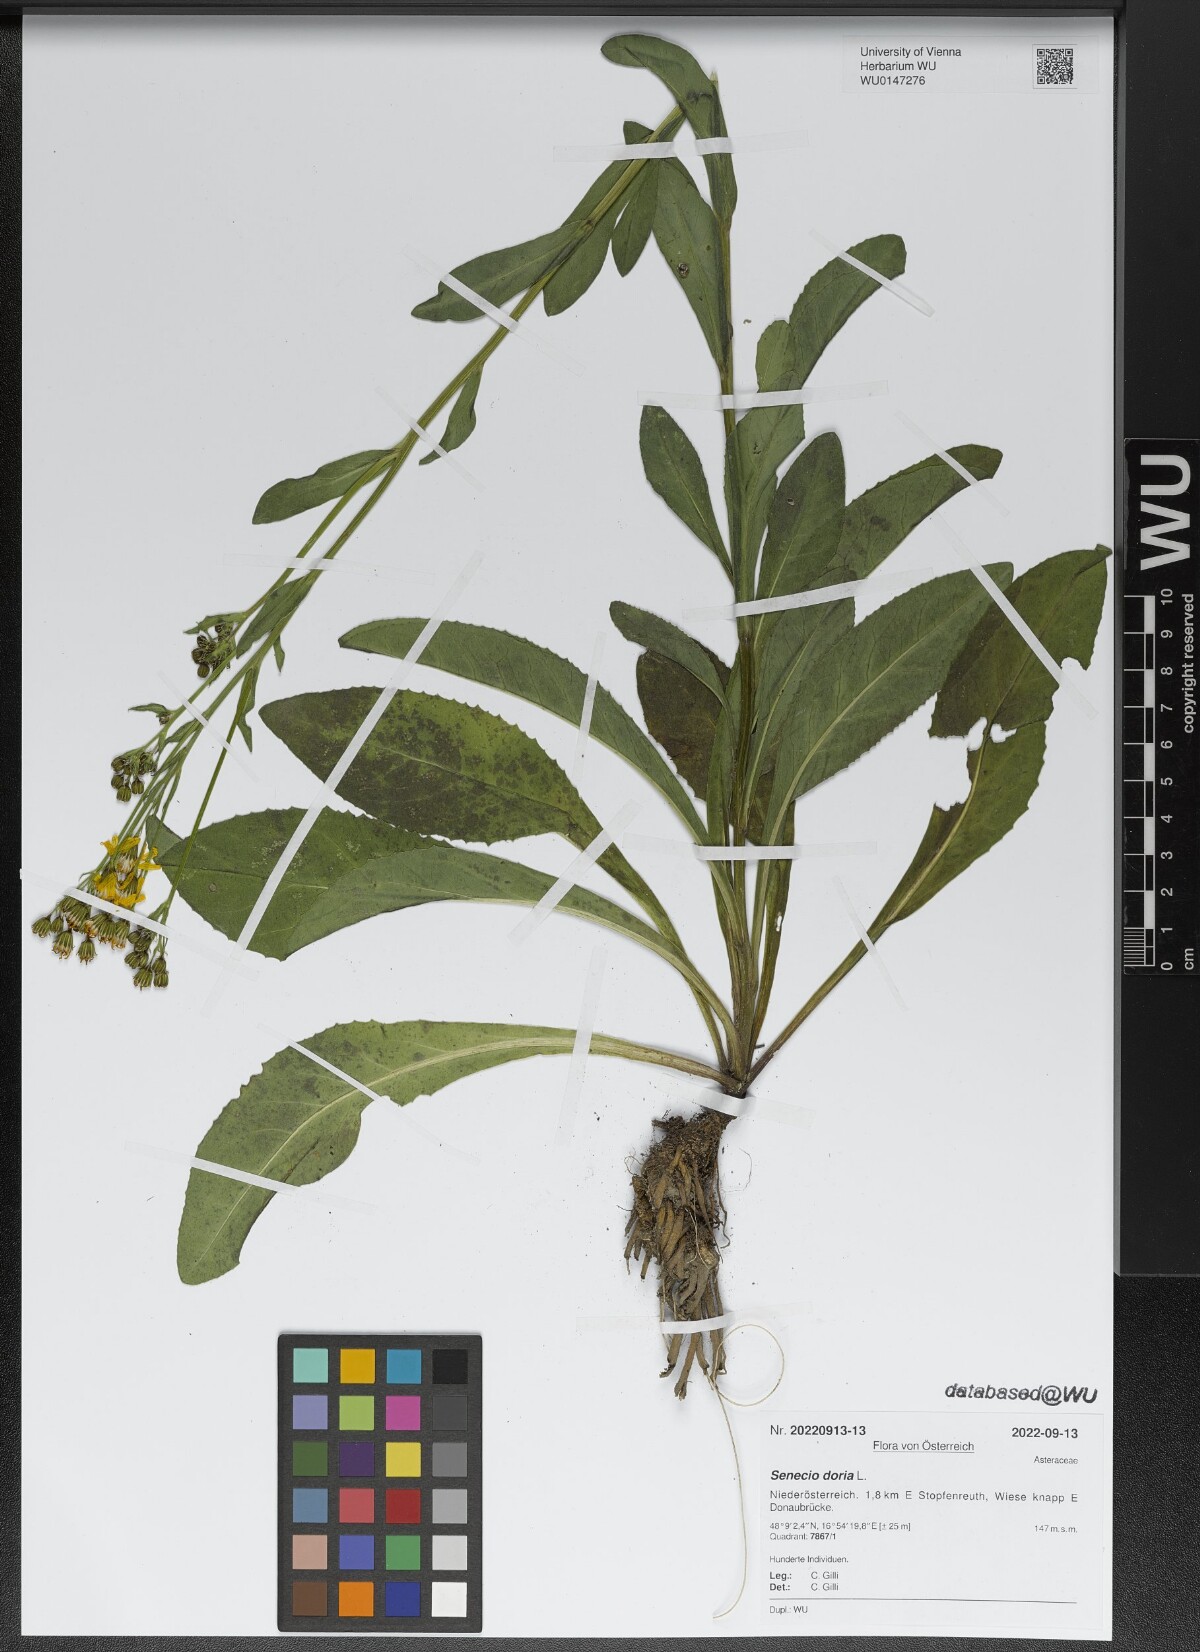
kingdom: Plantae
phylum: Tracheophyta
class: Magnoliopsida
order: Asterales
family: Asteraceae
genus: Senecio
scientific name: Senecio doria
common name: Golden ragwort
